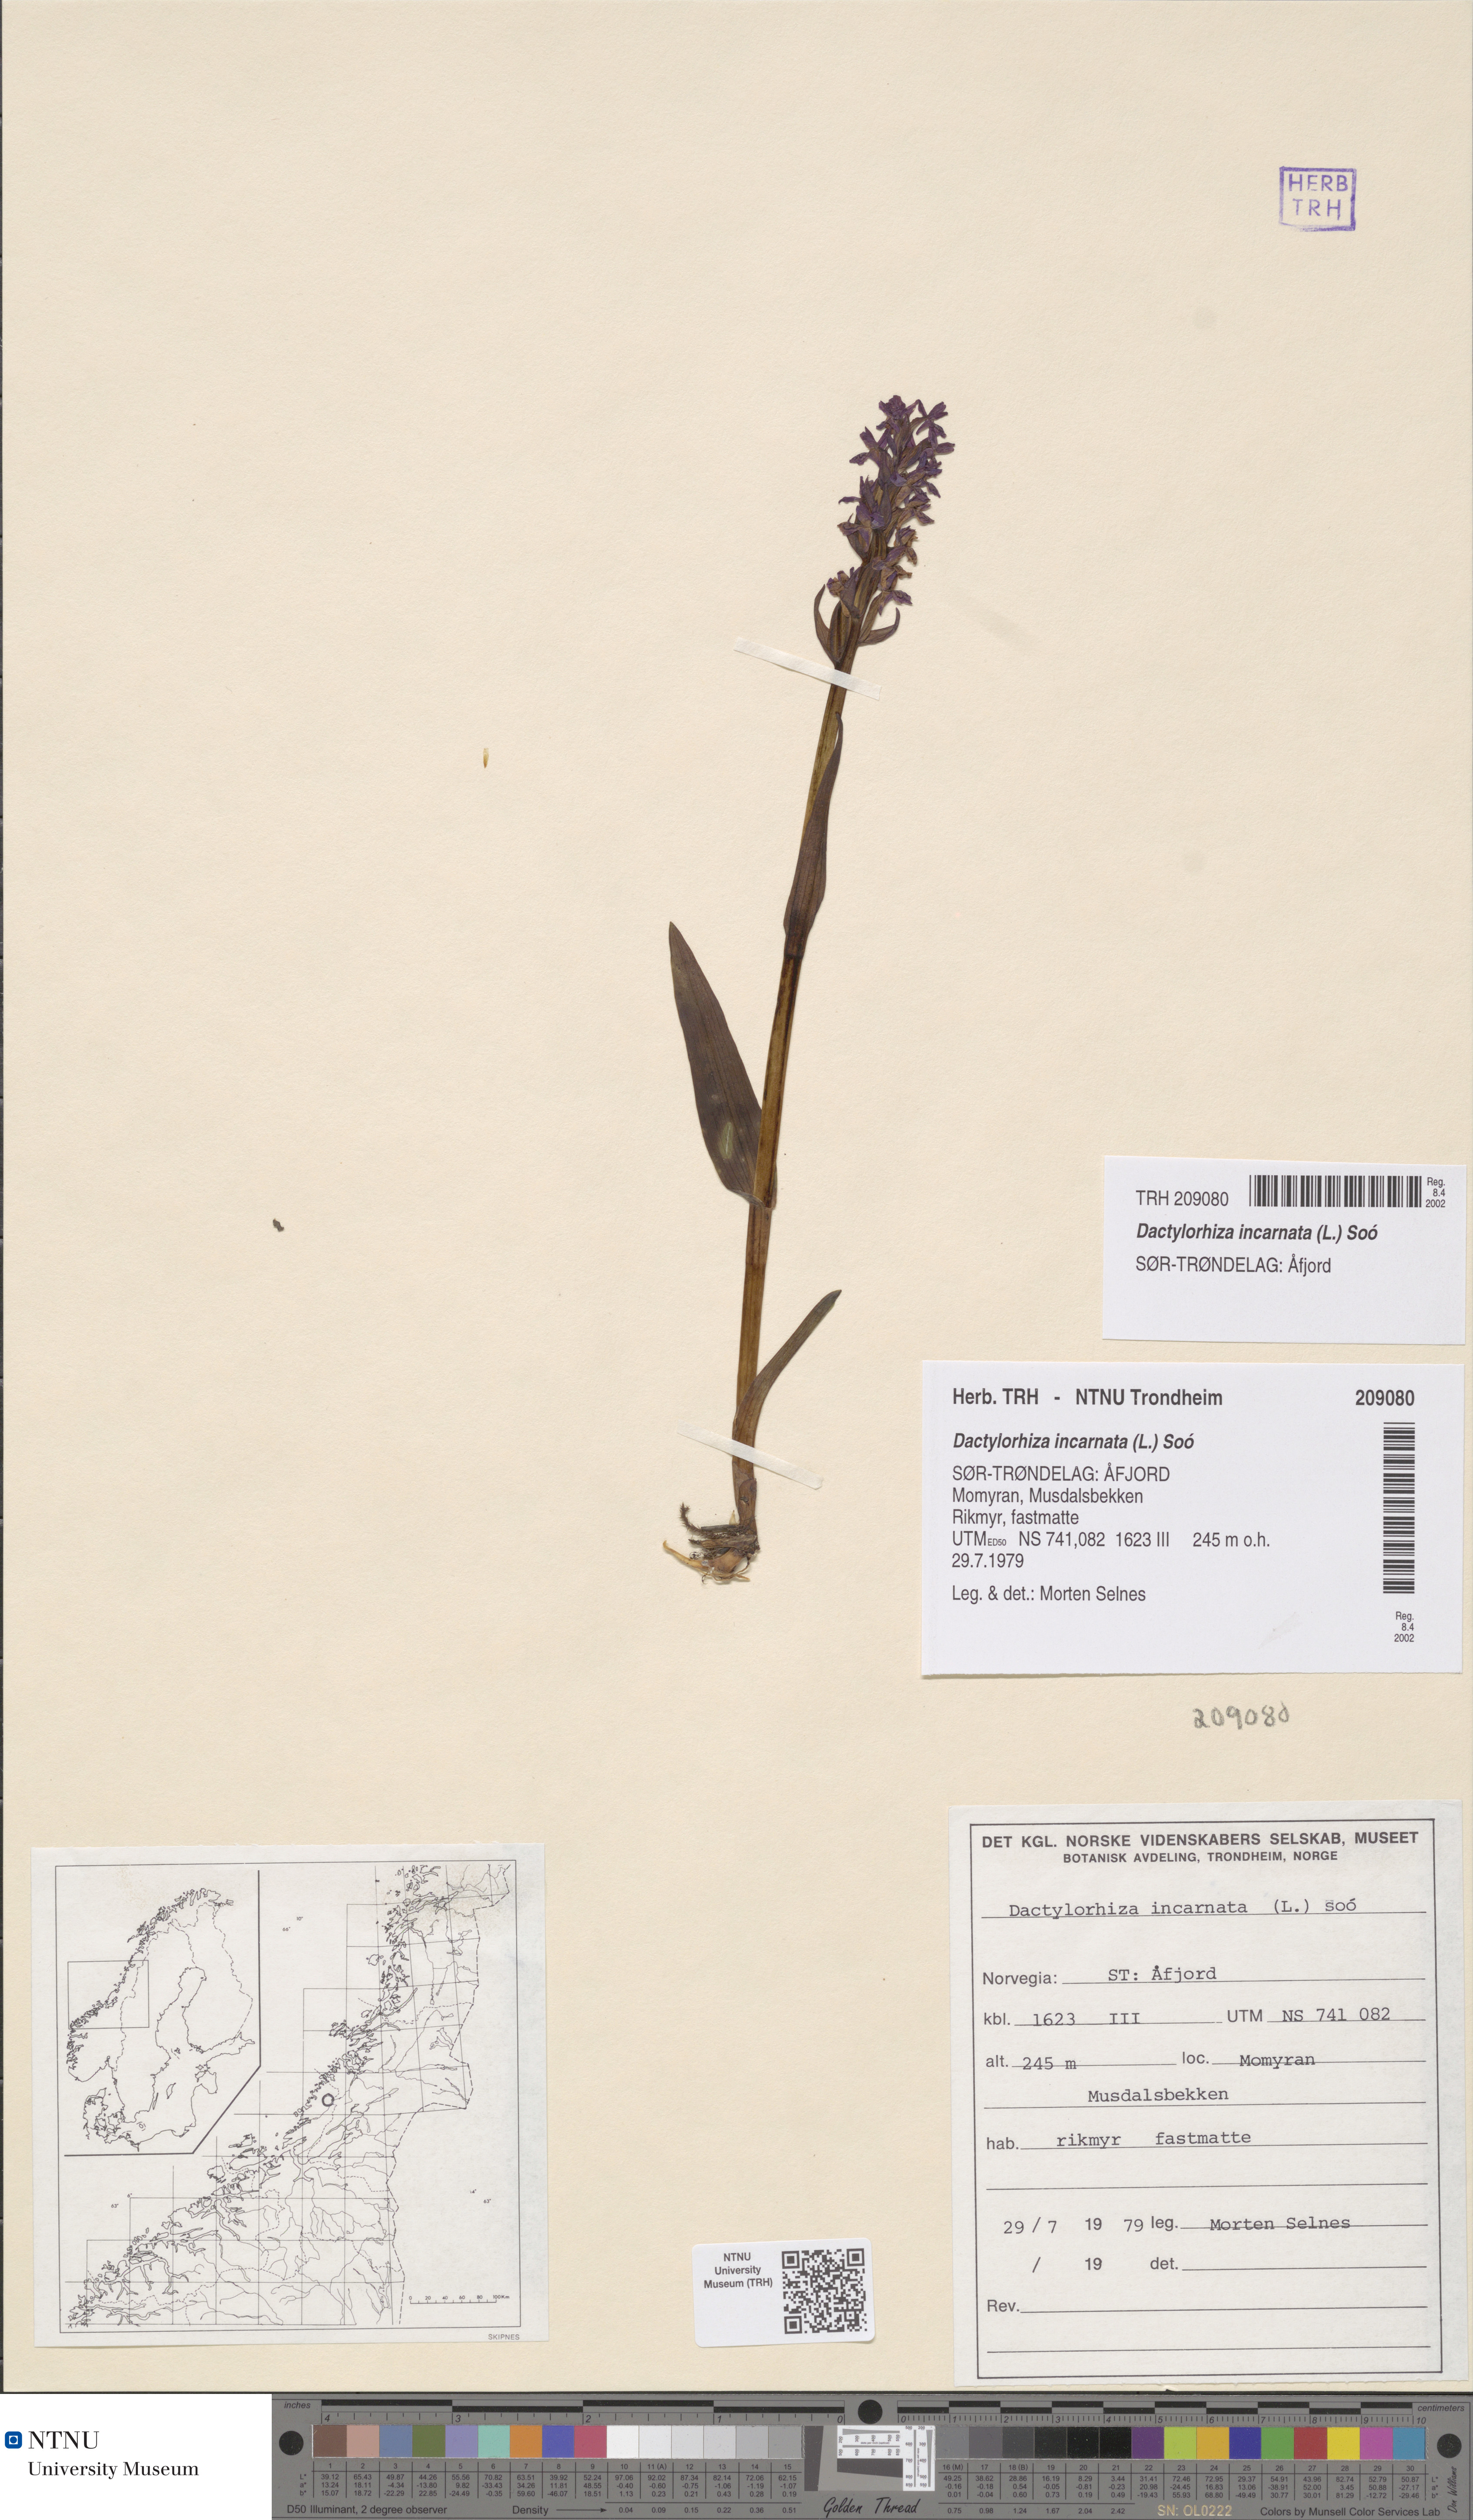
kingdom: Plantae
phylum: Tracheophyta
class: Liliopsida
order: Asparagales
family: Orchidaceae
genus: Dactylorhiza
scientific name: Dactylorhiza incarnata
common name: Early marsh-orchid
